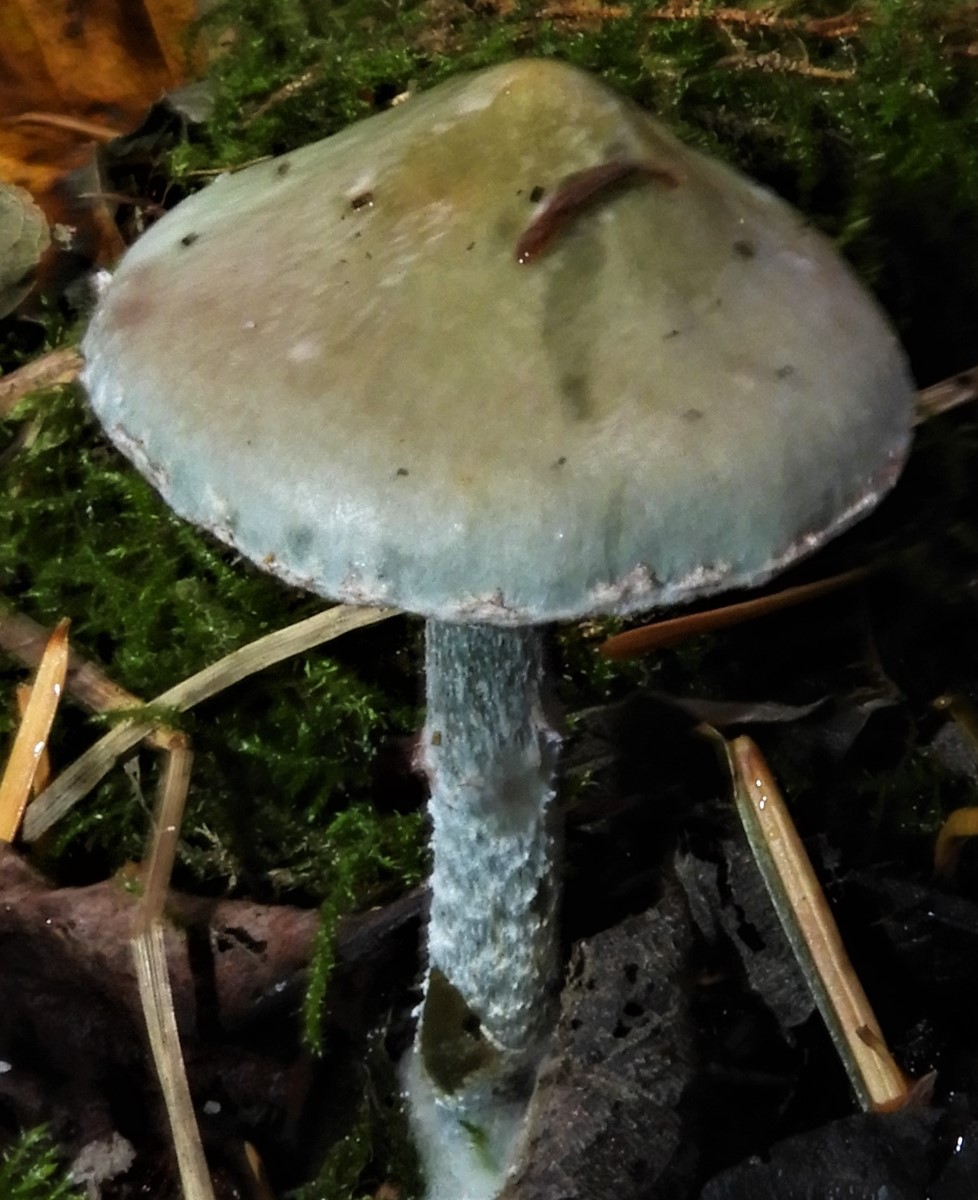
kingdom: Fungi
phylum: Basidiomycota
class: Agaricomycetes
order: Agaricales
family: Strophariaceae
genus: Stropharia
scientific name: Stropharia cyanea
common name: blågrøn bredblad
